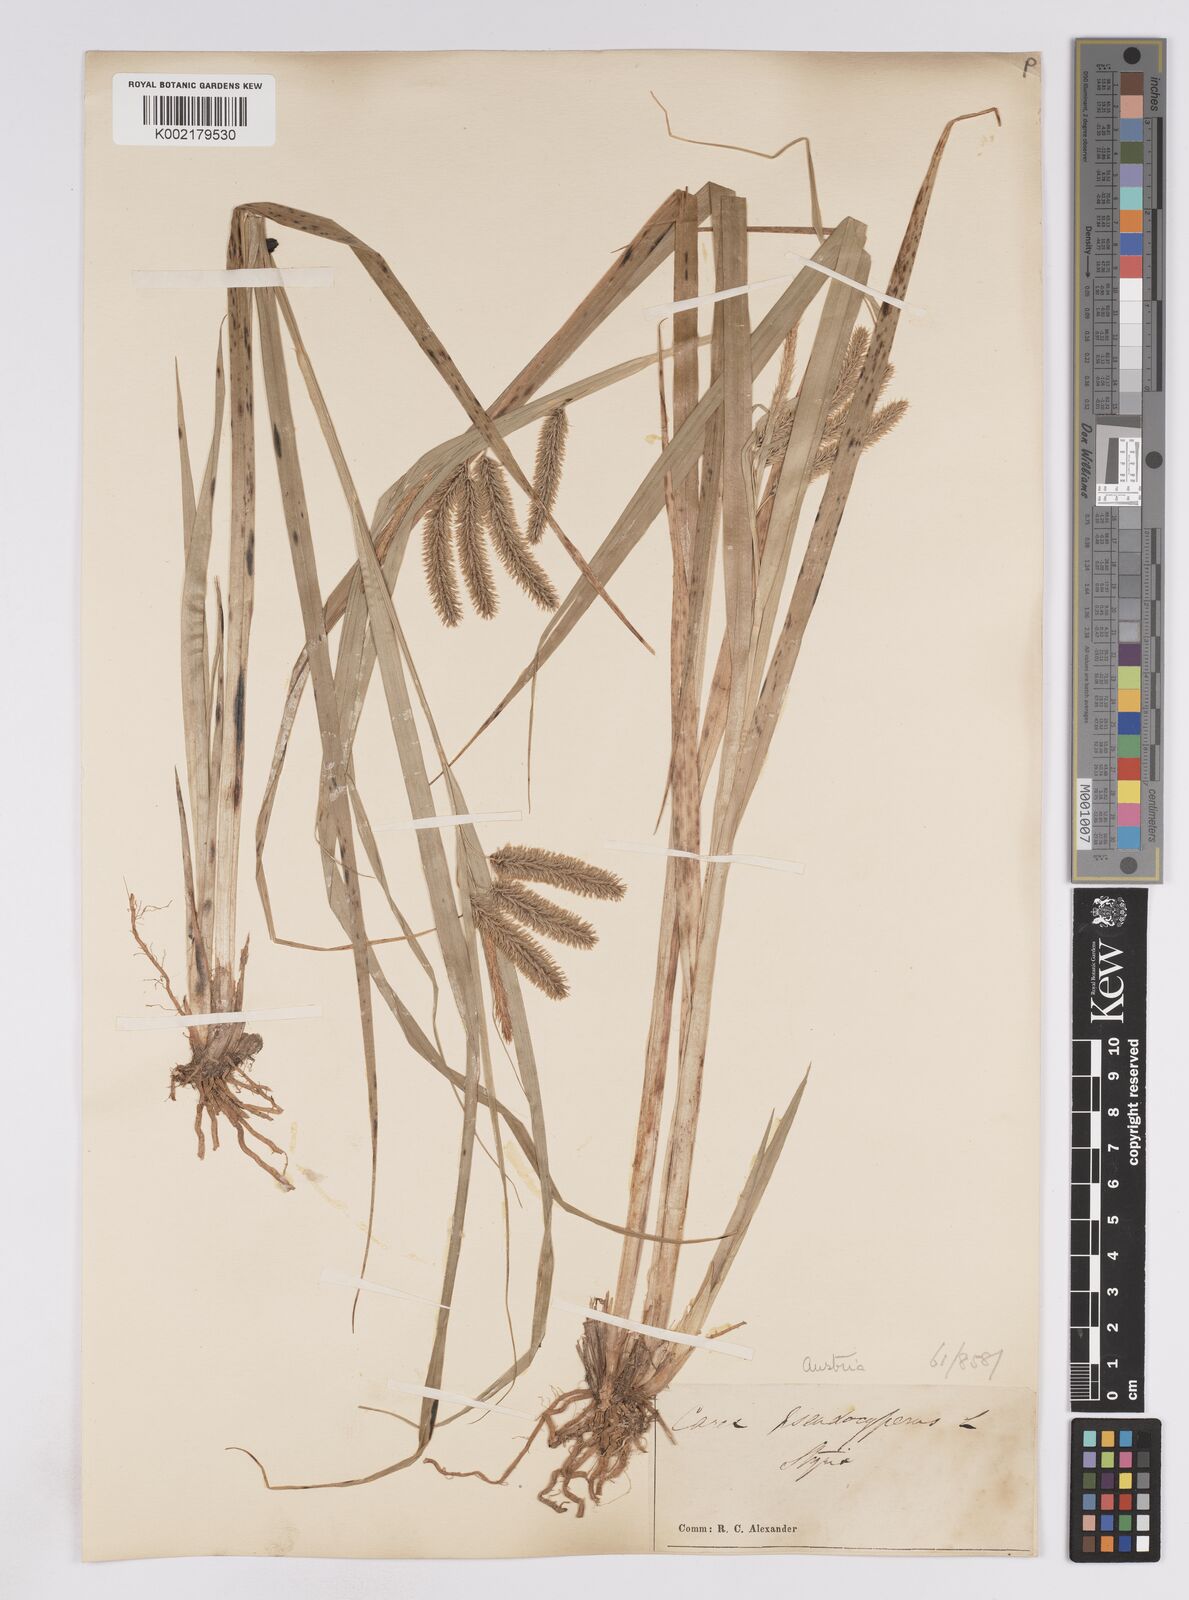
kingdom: Plantae
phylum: Tracheophyta
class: Liliopsida
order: Poales
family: Cyperaceae
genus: Carex
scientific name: Carex pseudocyperus
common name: Cyperus sedge
